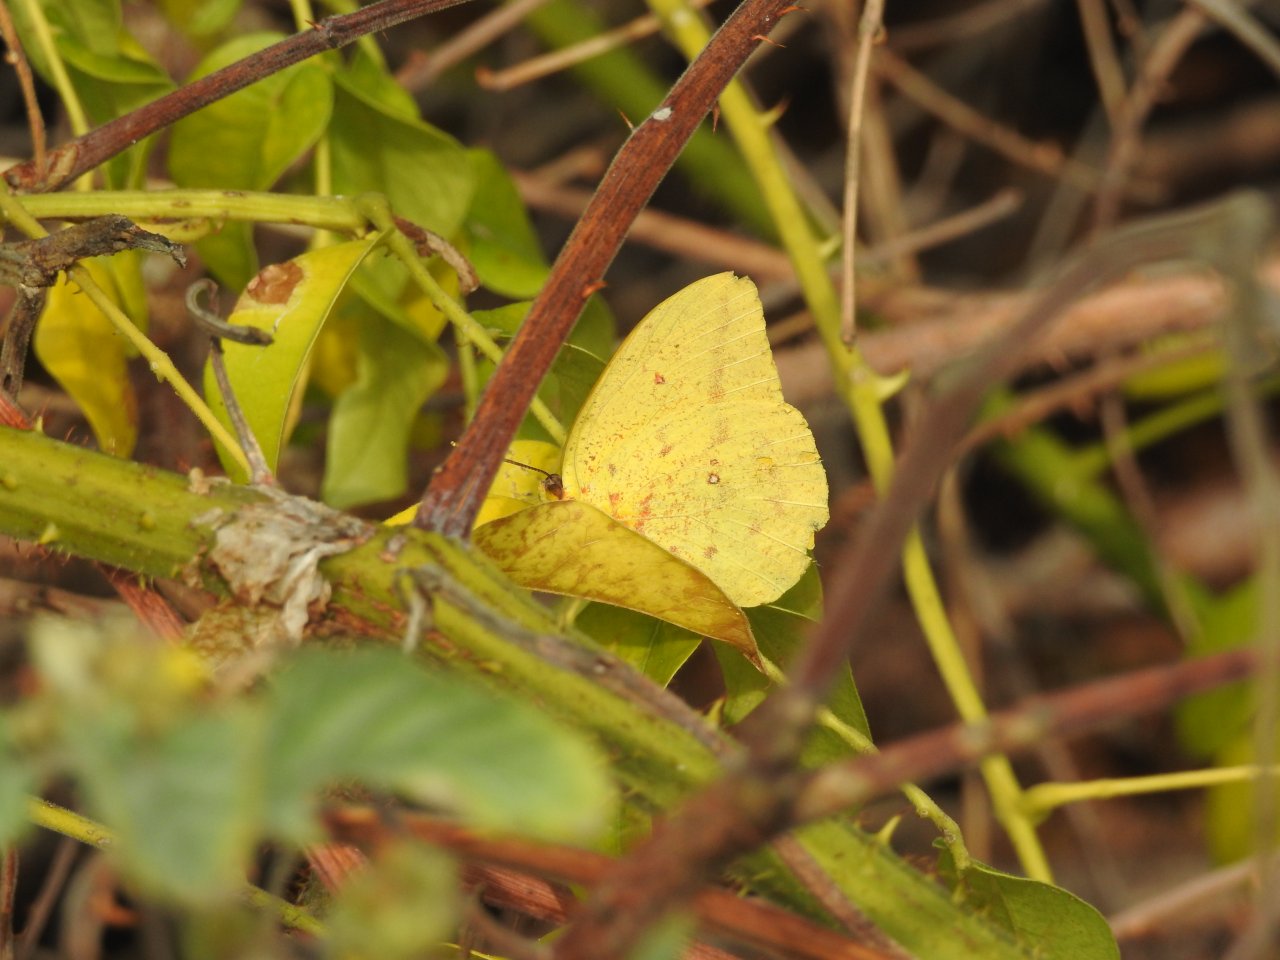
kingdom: Animalia
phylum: Arthropoda
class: Insecta
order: Lepidoptera
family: Pieridae
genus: Phoebis
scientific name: Phoebis agarithe
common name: Large Orange Sulphur
